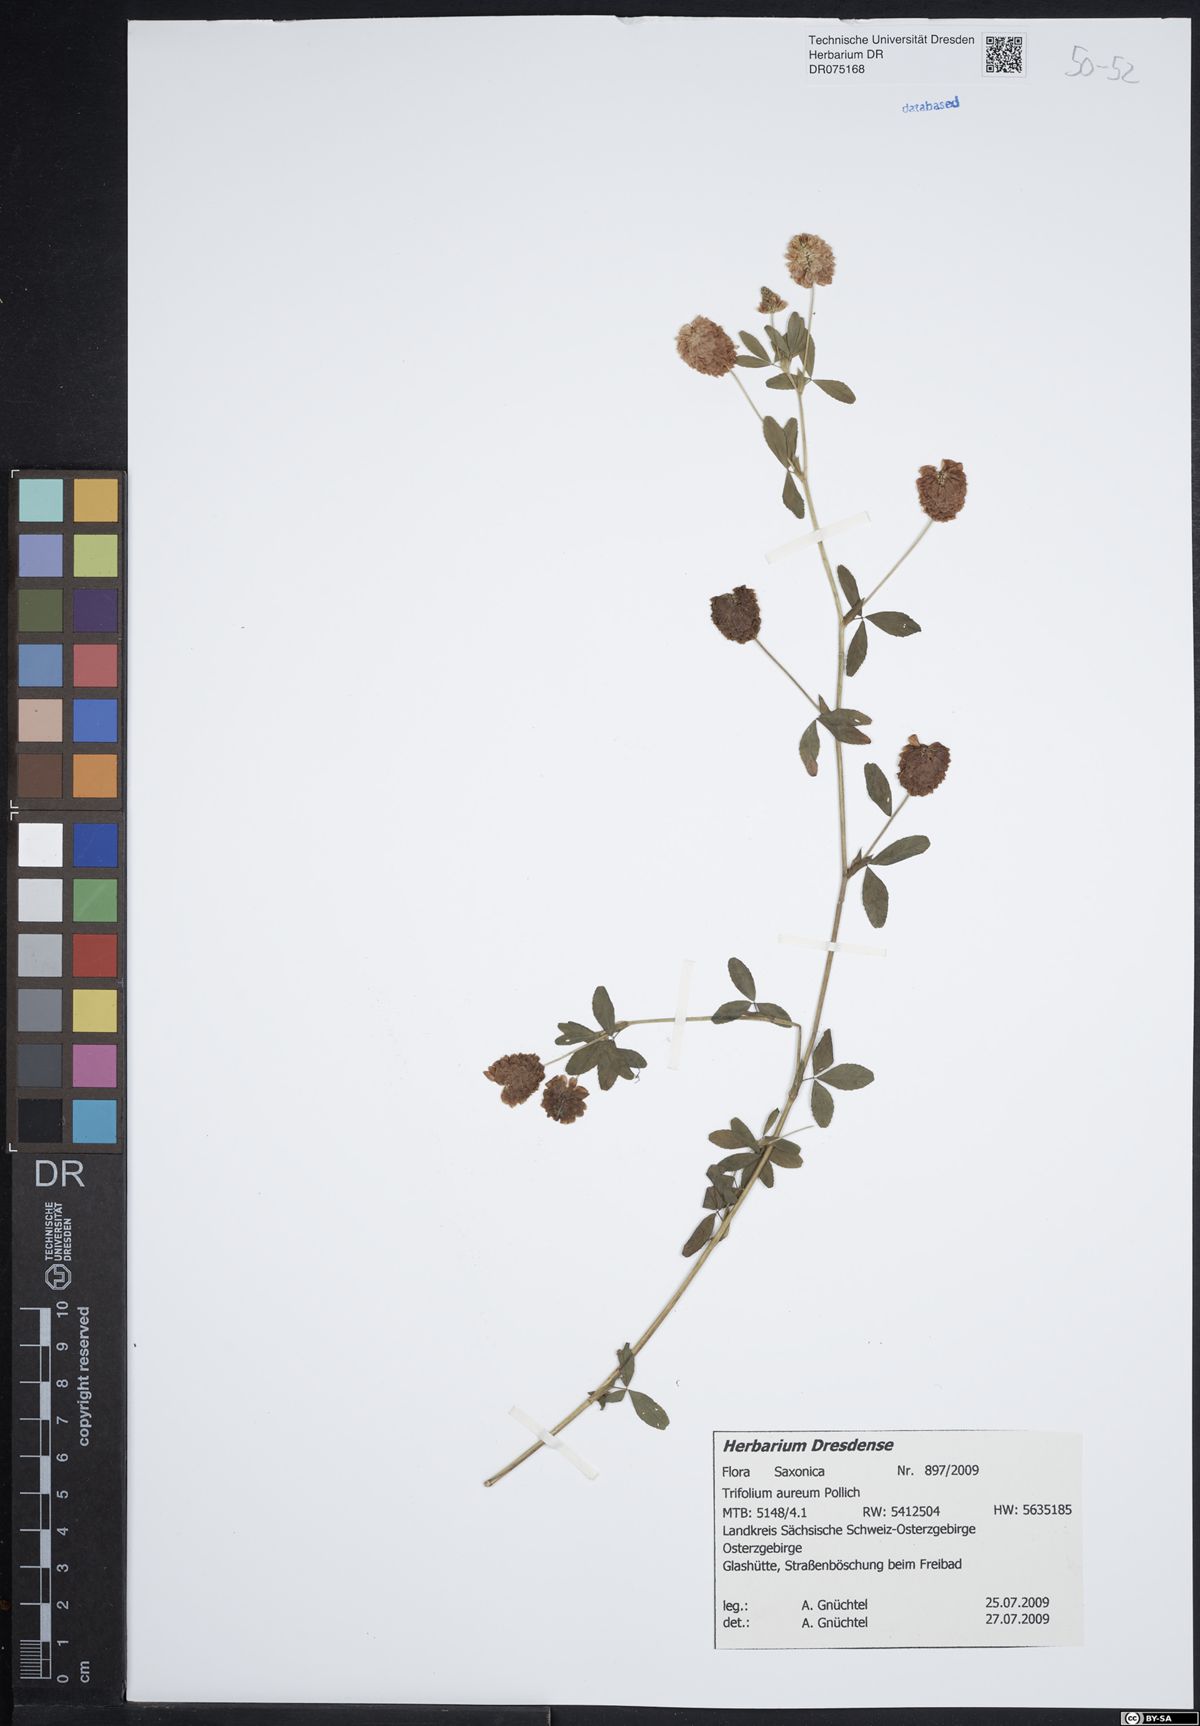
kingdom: Plantae
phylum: Tracheophyta
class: Magnoliopsida
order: Fabales
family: Fabaceae
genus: Trifolium
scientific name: Trifolium aureum
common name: Golden clover
